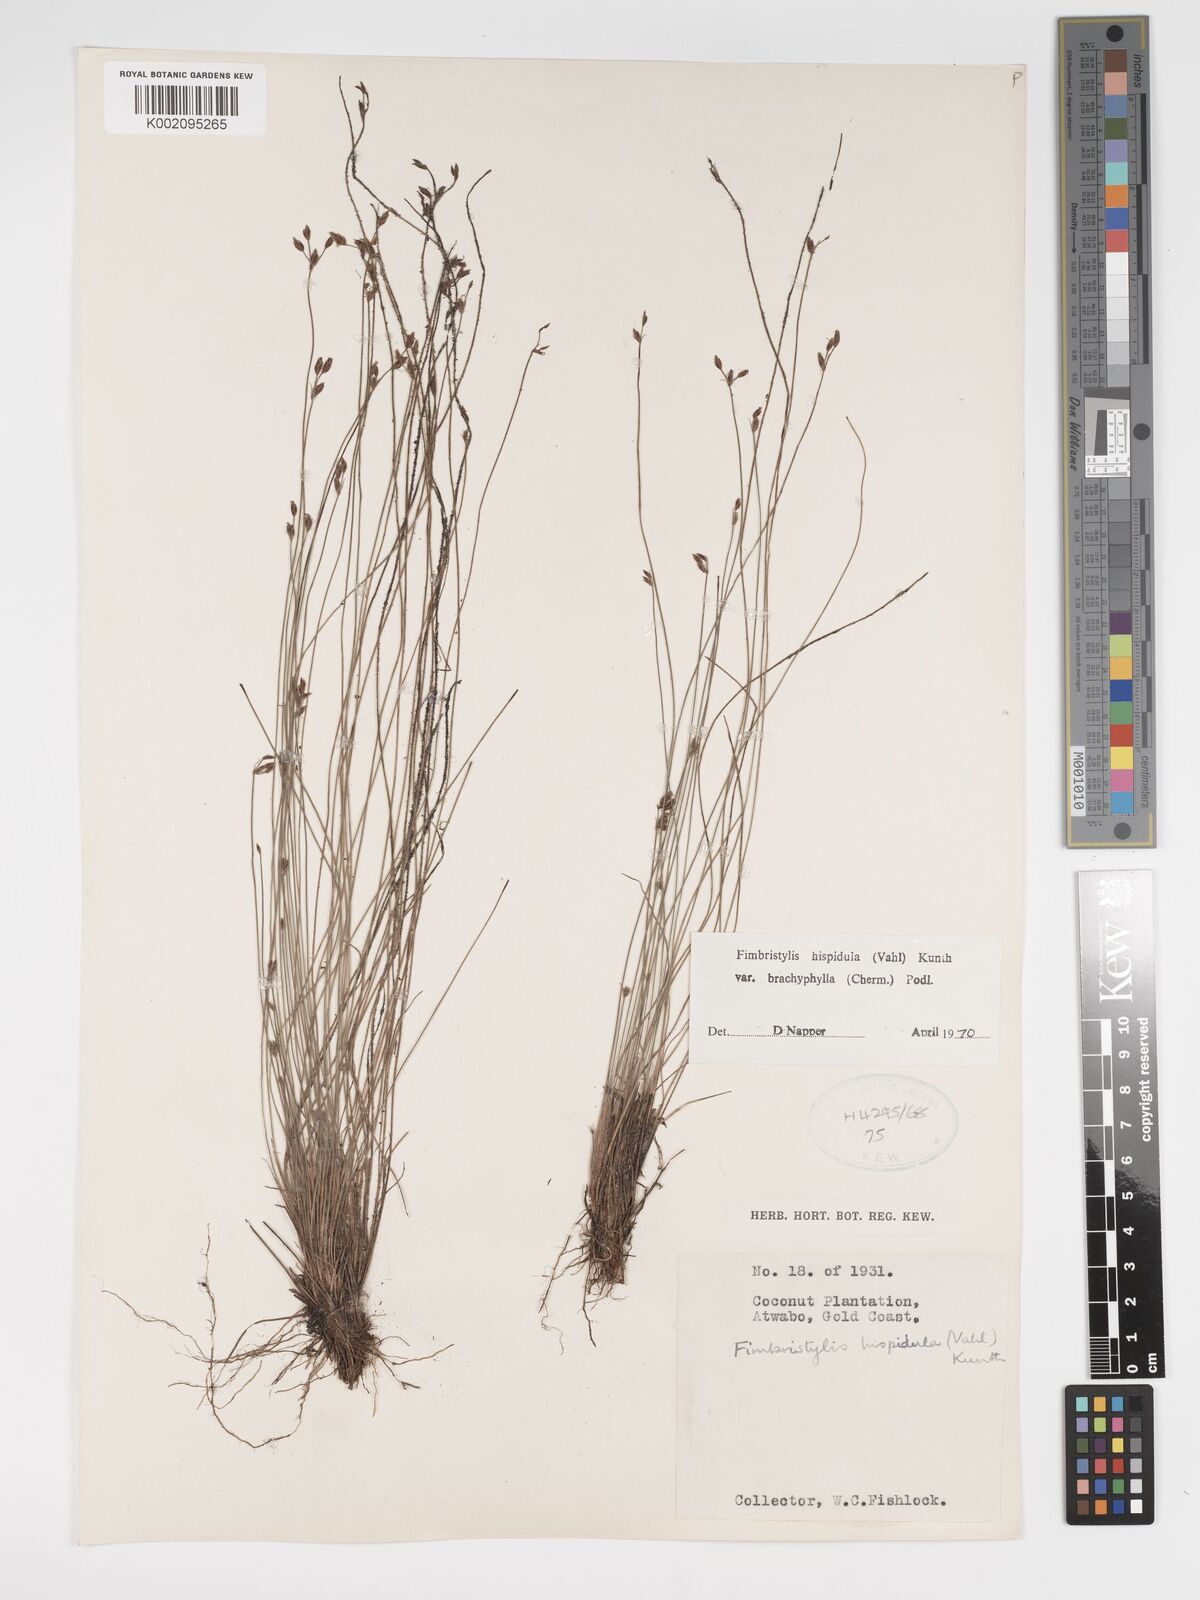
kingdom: Plantae
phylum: Tracheophyta
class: Liliopsida
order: Poales
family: Cyperaceae
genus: Bulbostylis
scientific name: Bulbostylis hispidula
